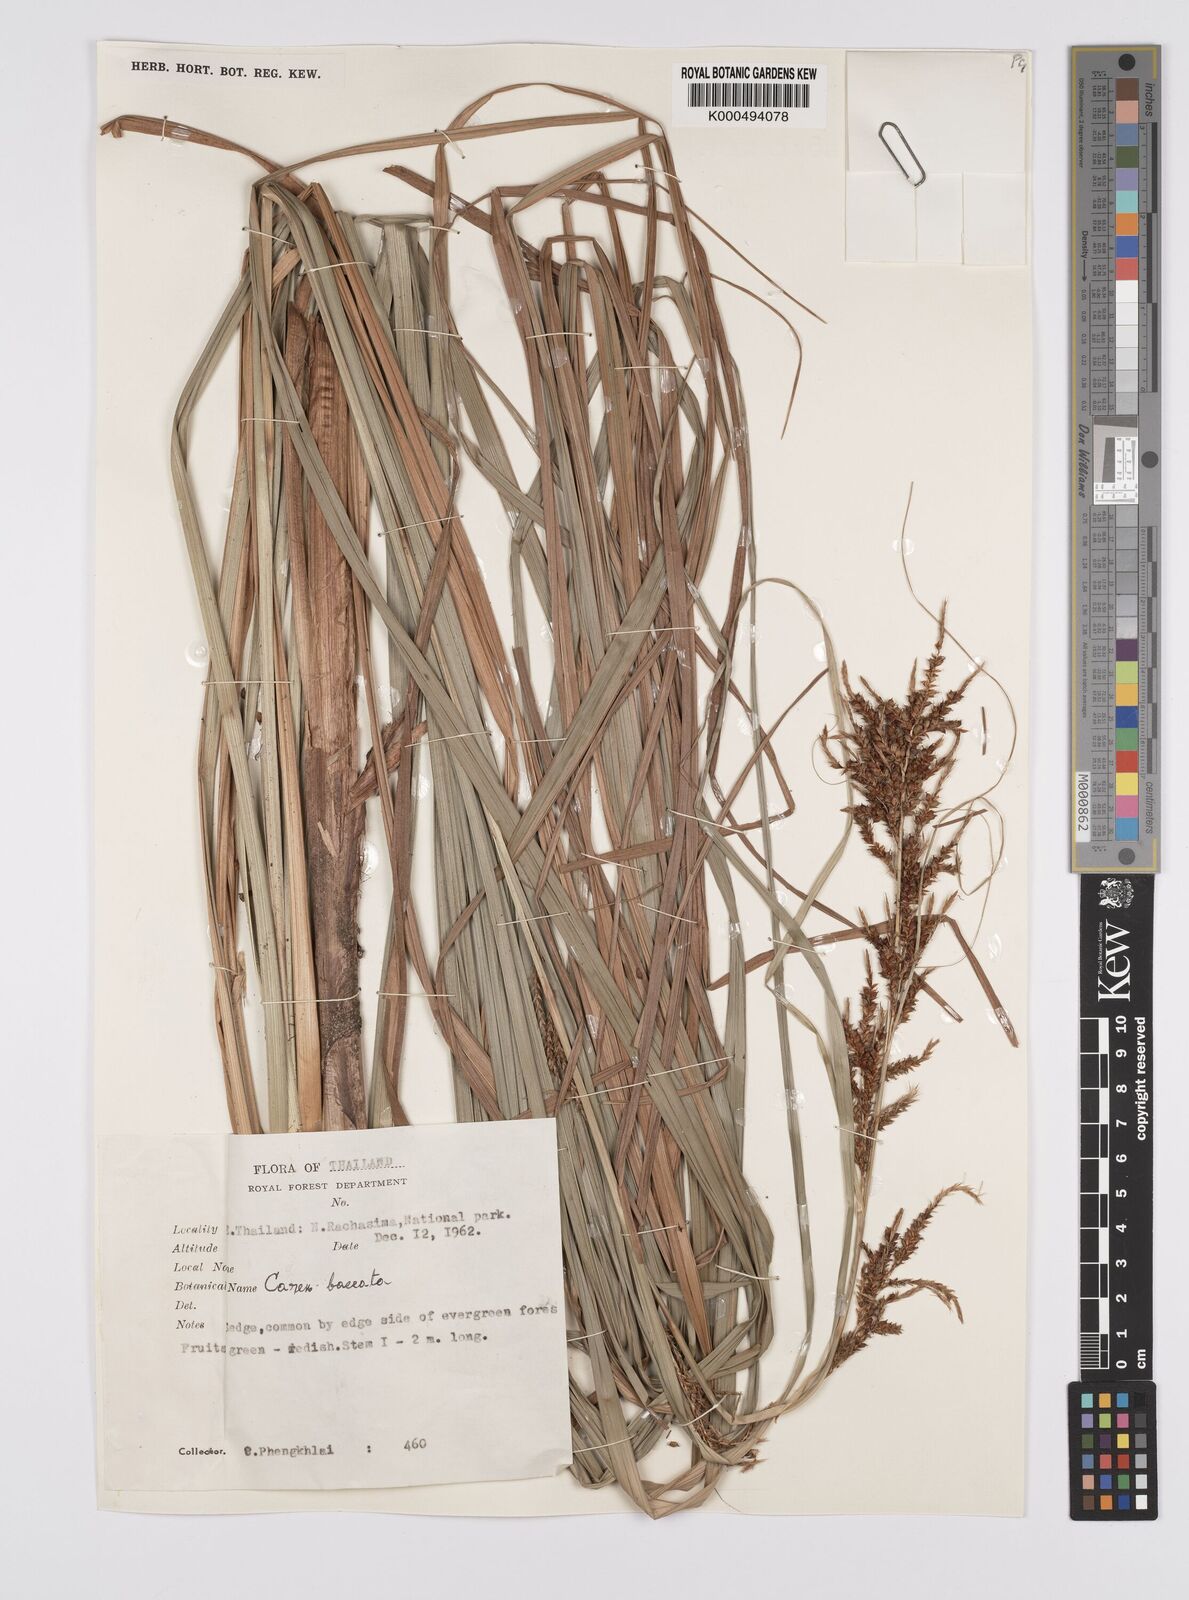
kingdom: Plantae
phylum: Tracheophyta
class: Liliopsida
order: Poales
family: Cyperaceae
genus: Carex
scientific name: Carex baccans
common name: Crimson seeded sedge
